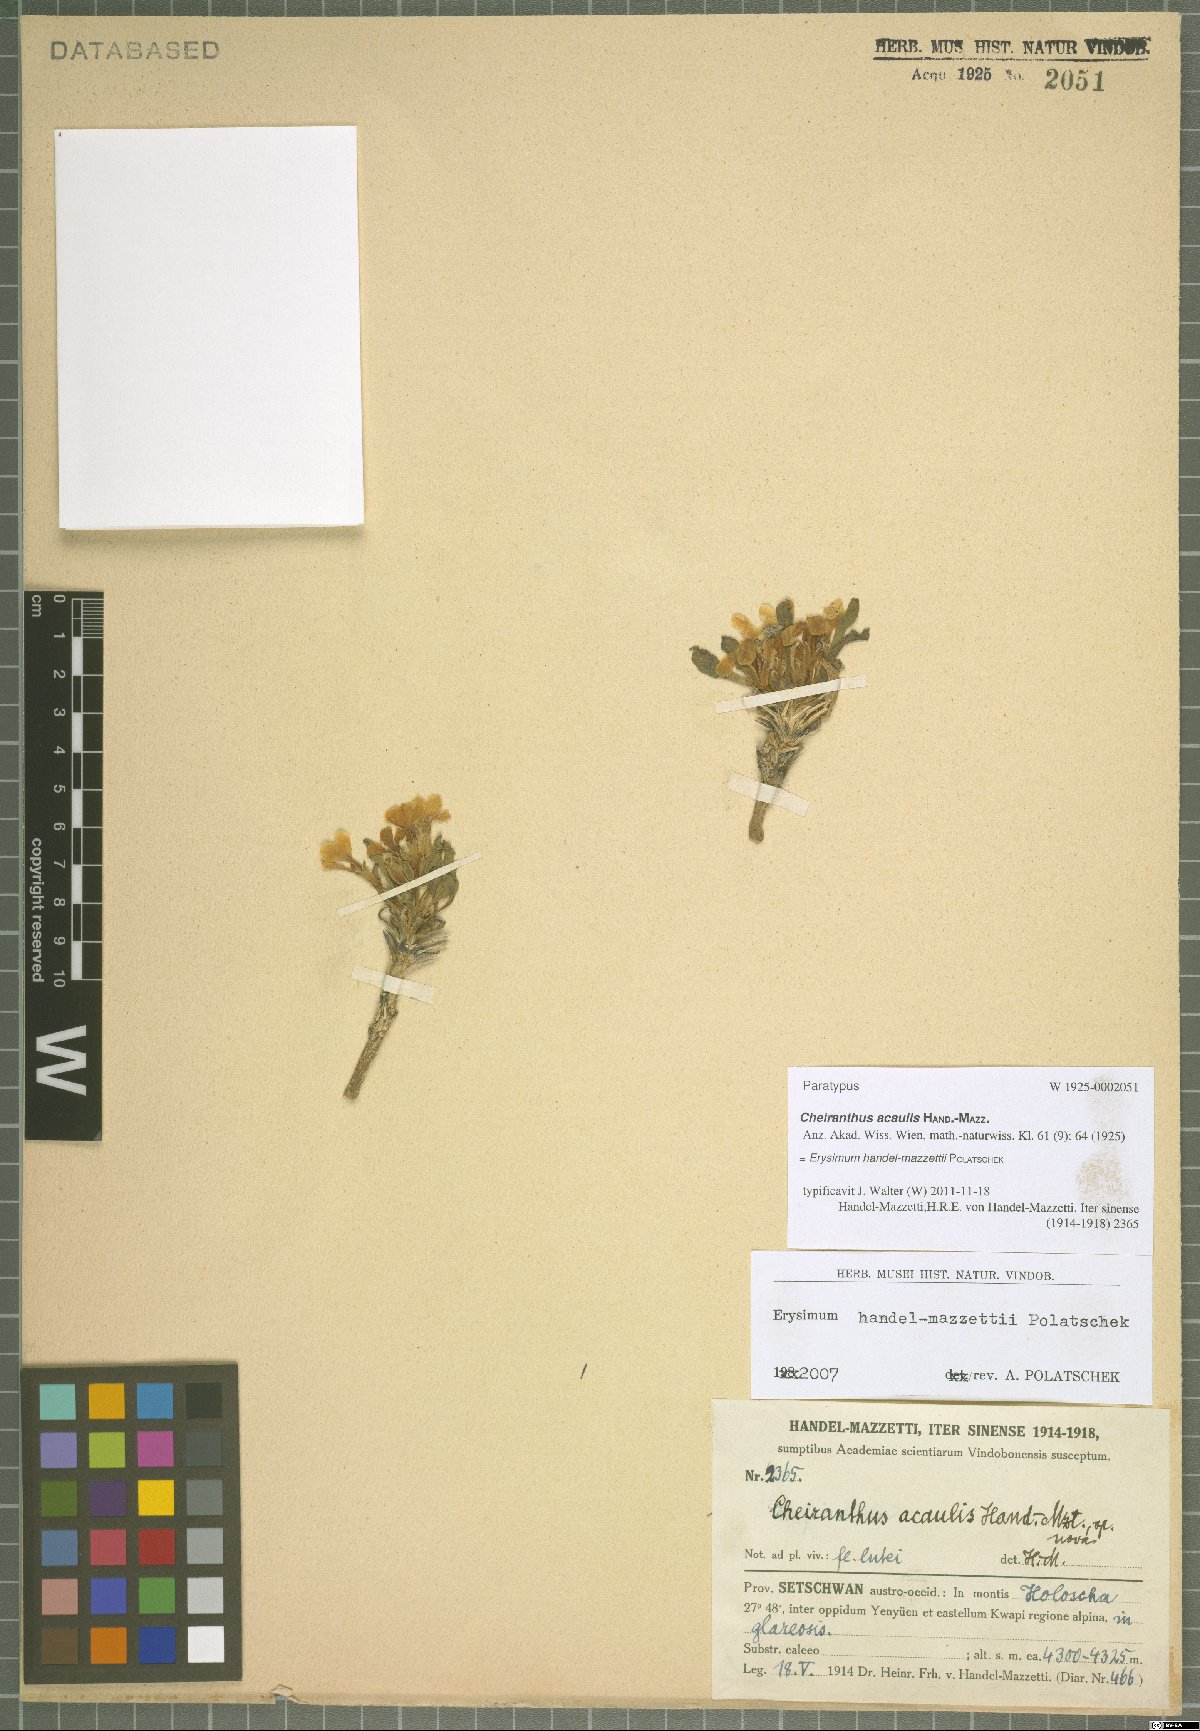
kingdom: Plantae
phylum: Tracheophyta
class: Magnoliopsida
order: Brassicales
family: Brassicaceae
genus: Erysimum
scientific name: Erysimum handel-mazzettii
